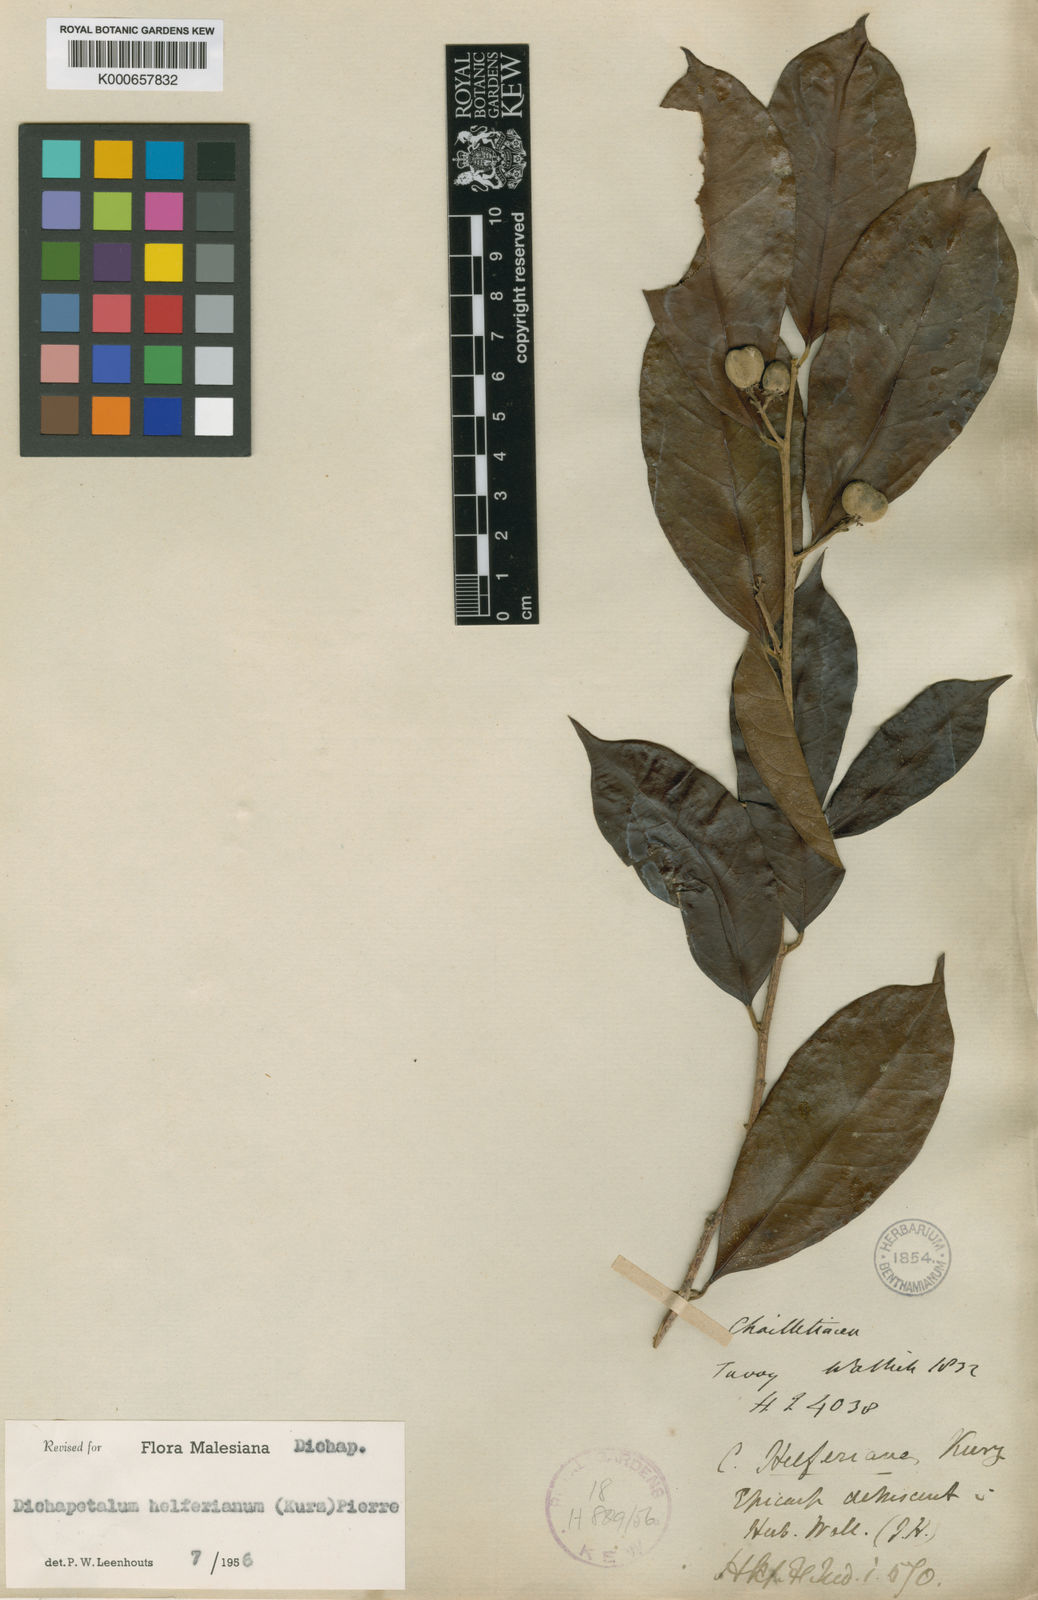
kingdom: Plantae
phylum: Tracheophyta
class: Magnoliopsida
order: Malpighiales
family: Dichapetalaceae
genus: Dichapetalum
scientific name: Dichapetalum helferianum
